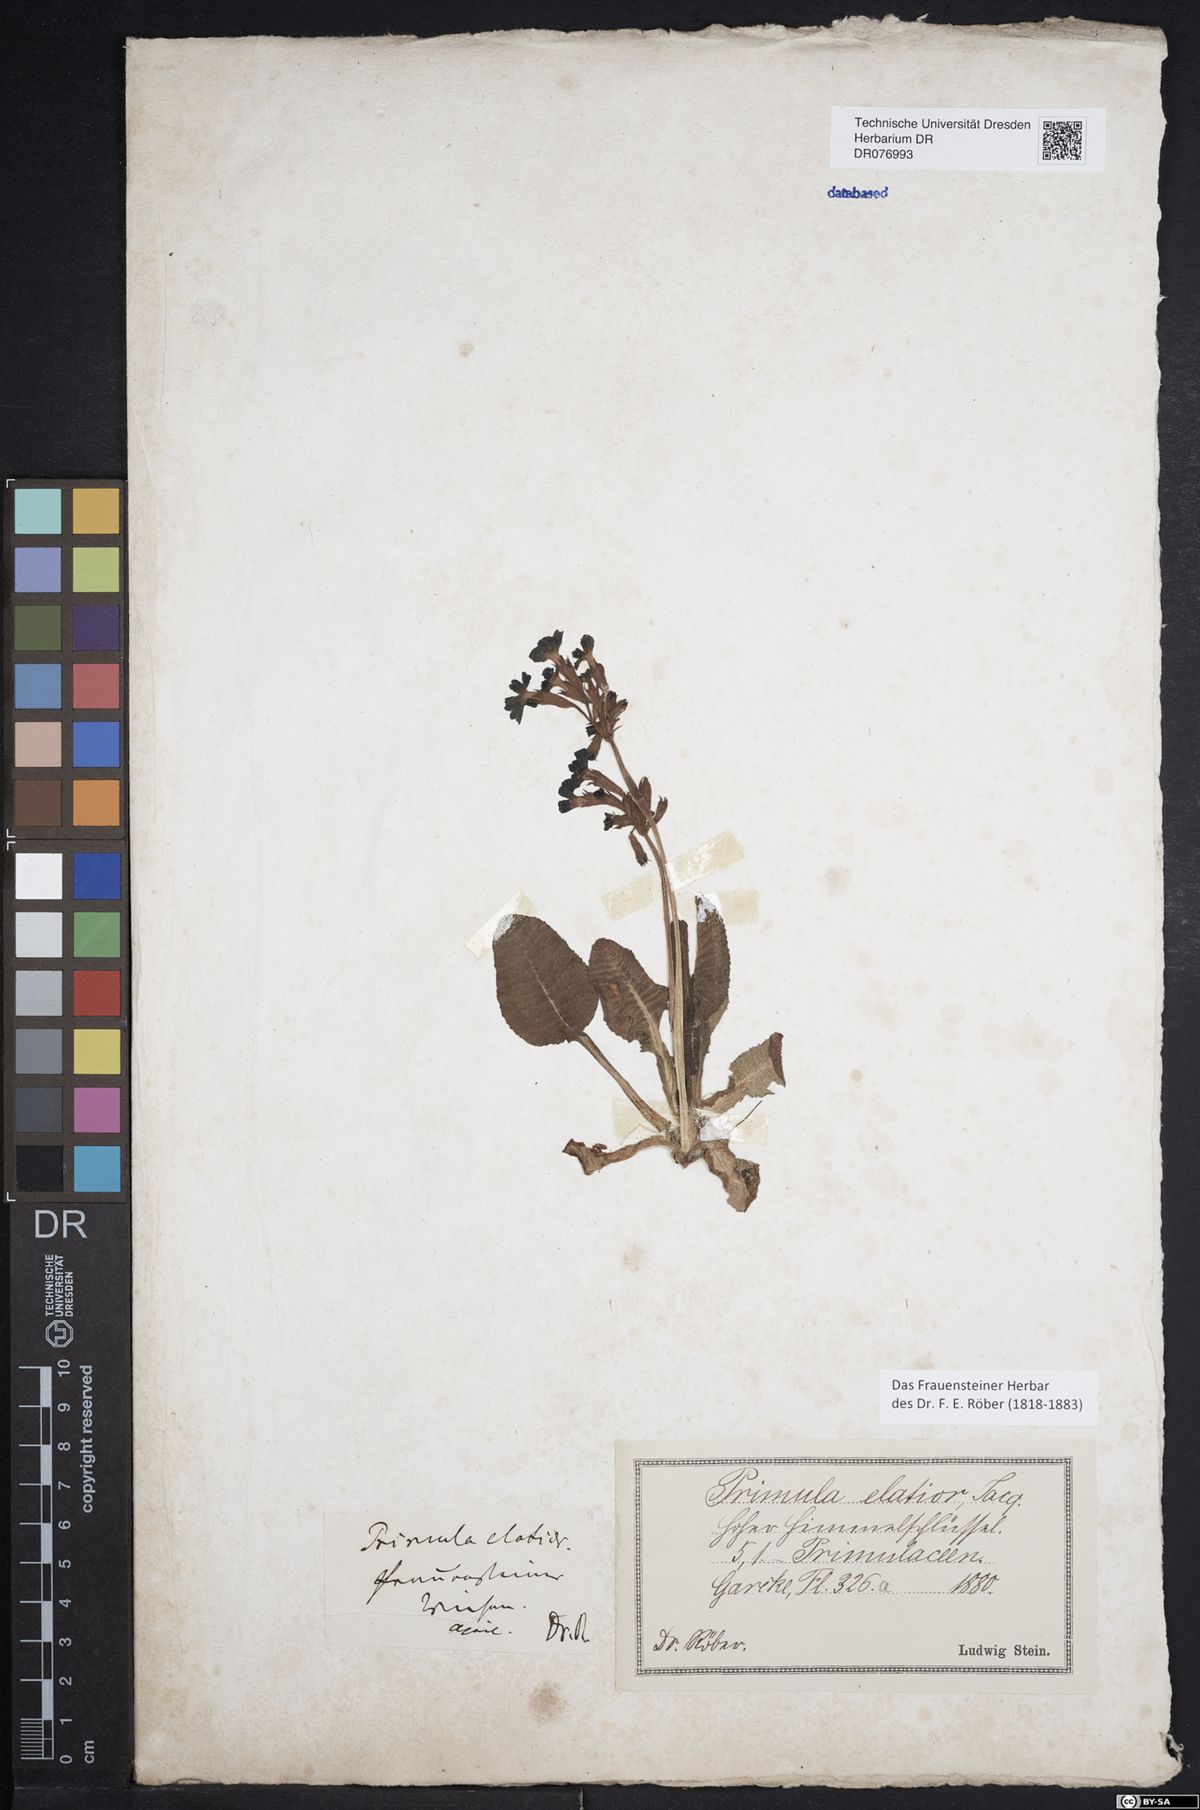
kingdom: Plantae
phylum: Tracheophyta
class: Magnoliopsida
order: Ericales
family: Primulaceae
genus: Primula
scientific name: Primula elatior
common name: Oxlip
